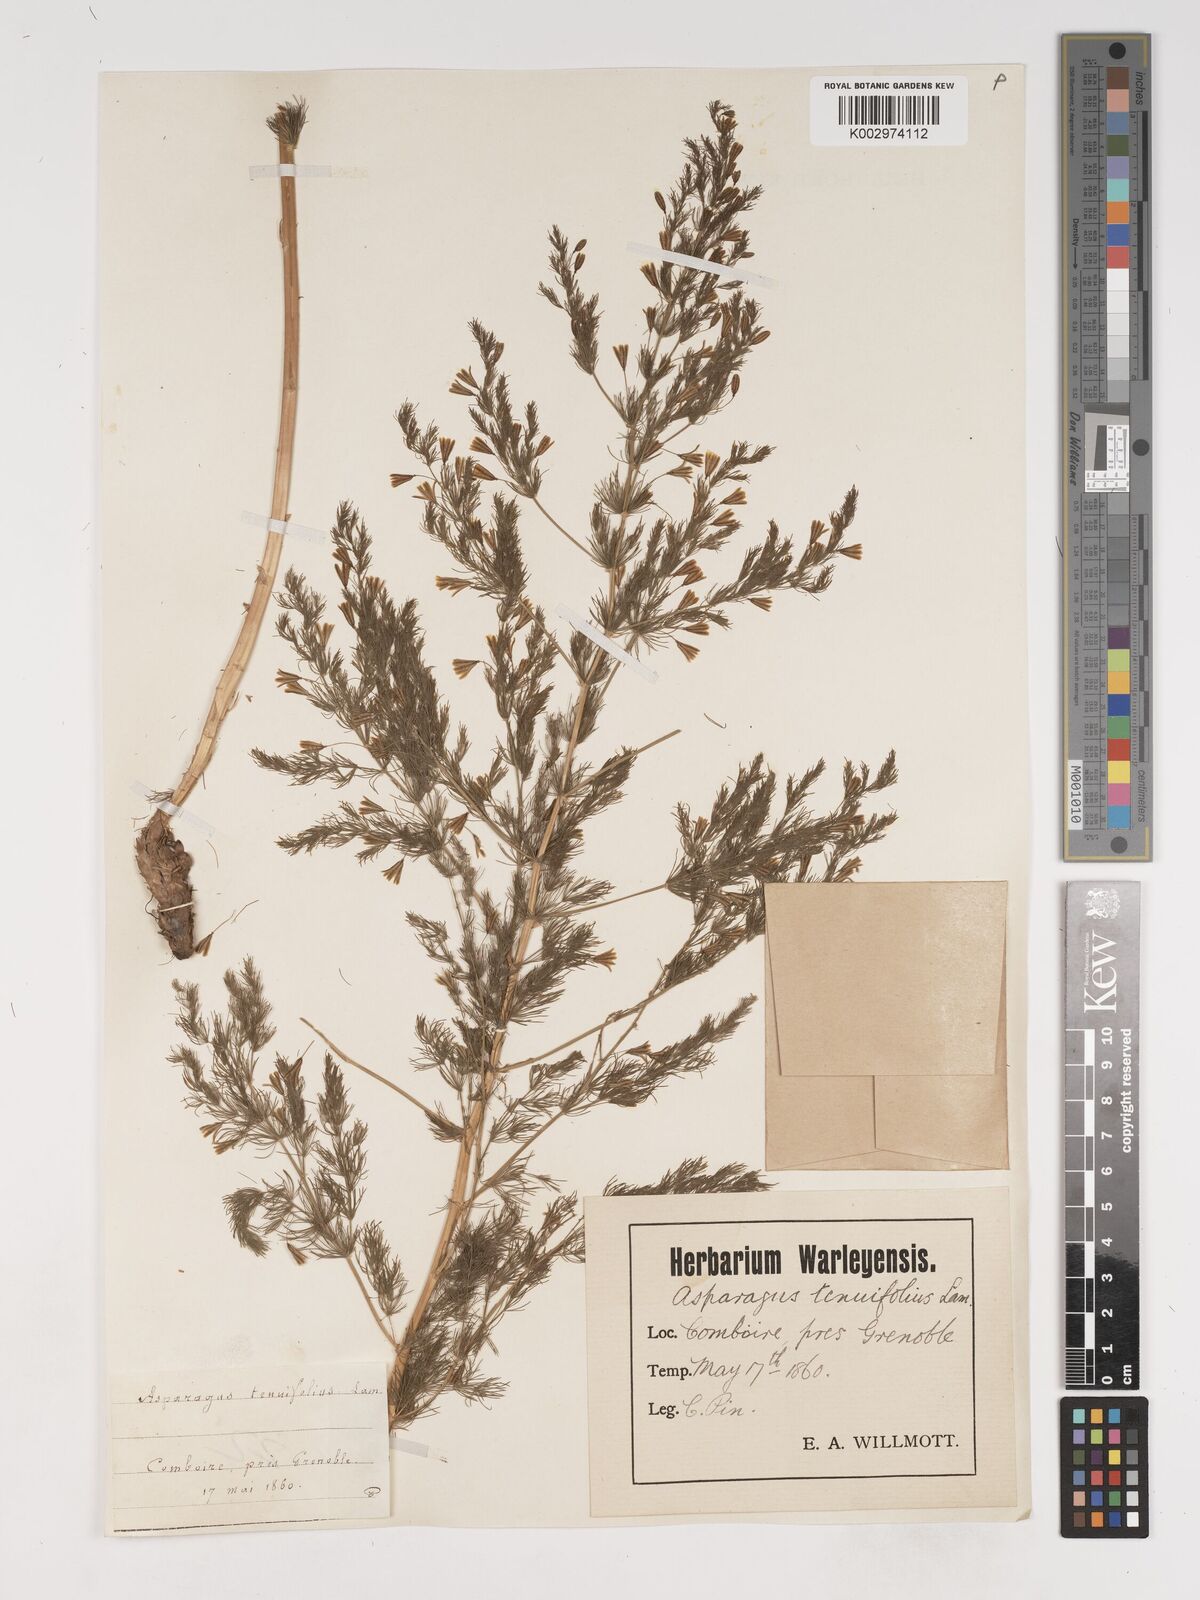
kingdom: Plantae
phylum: Tracheophyta
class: Liliopsida
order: Asparagales
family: Asparagaceae
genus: Asparagus
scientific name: Asparagus tenuifolius
